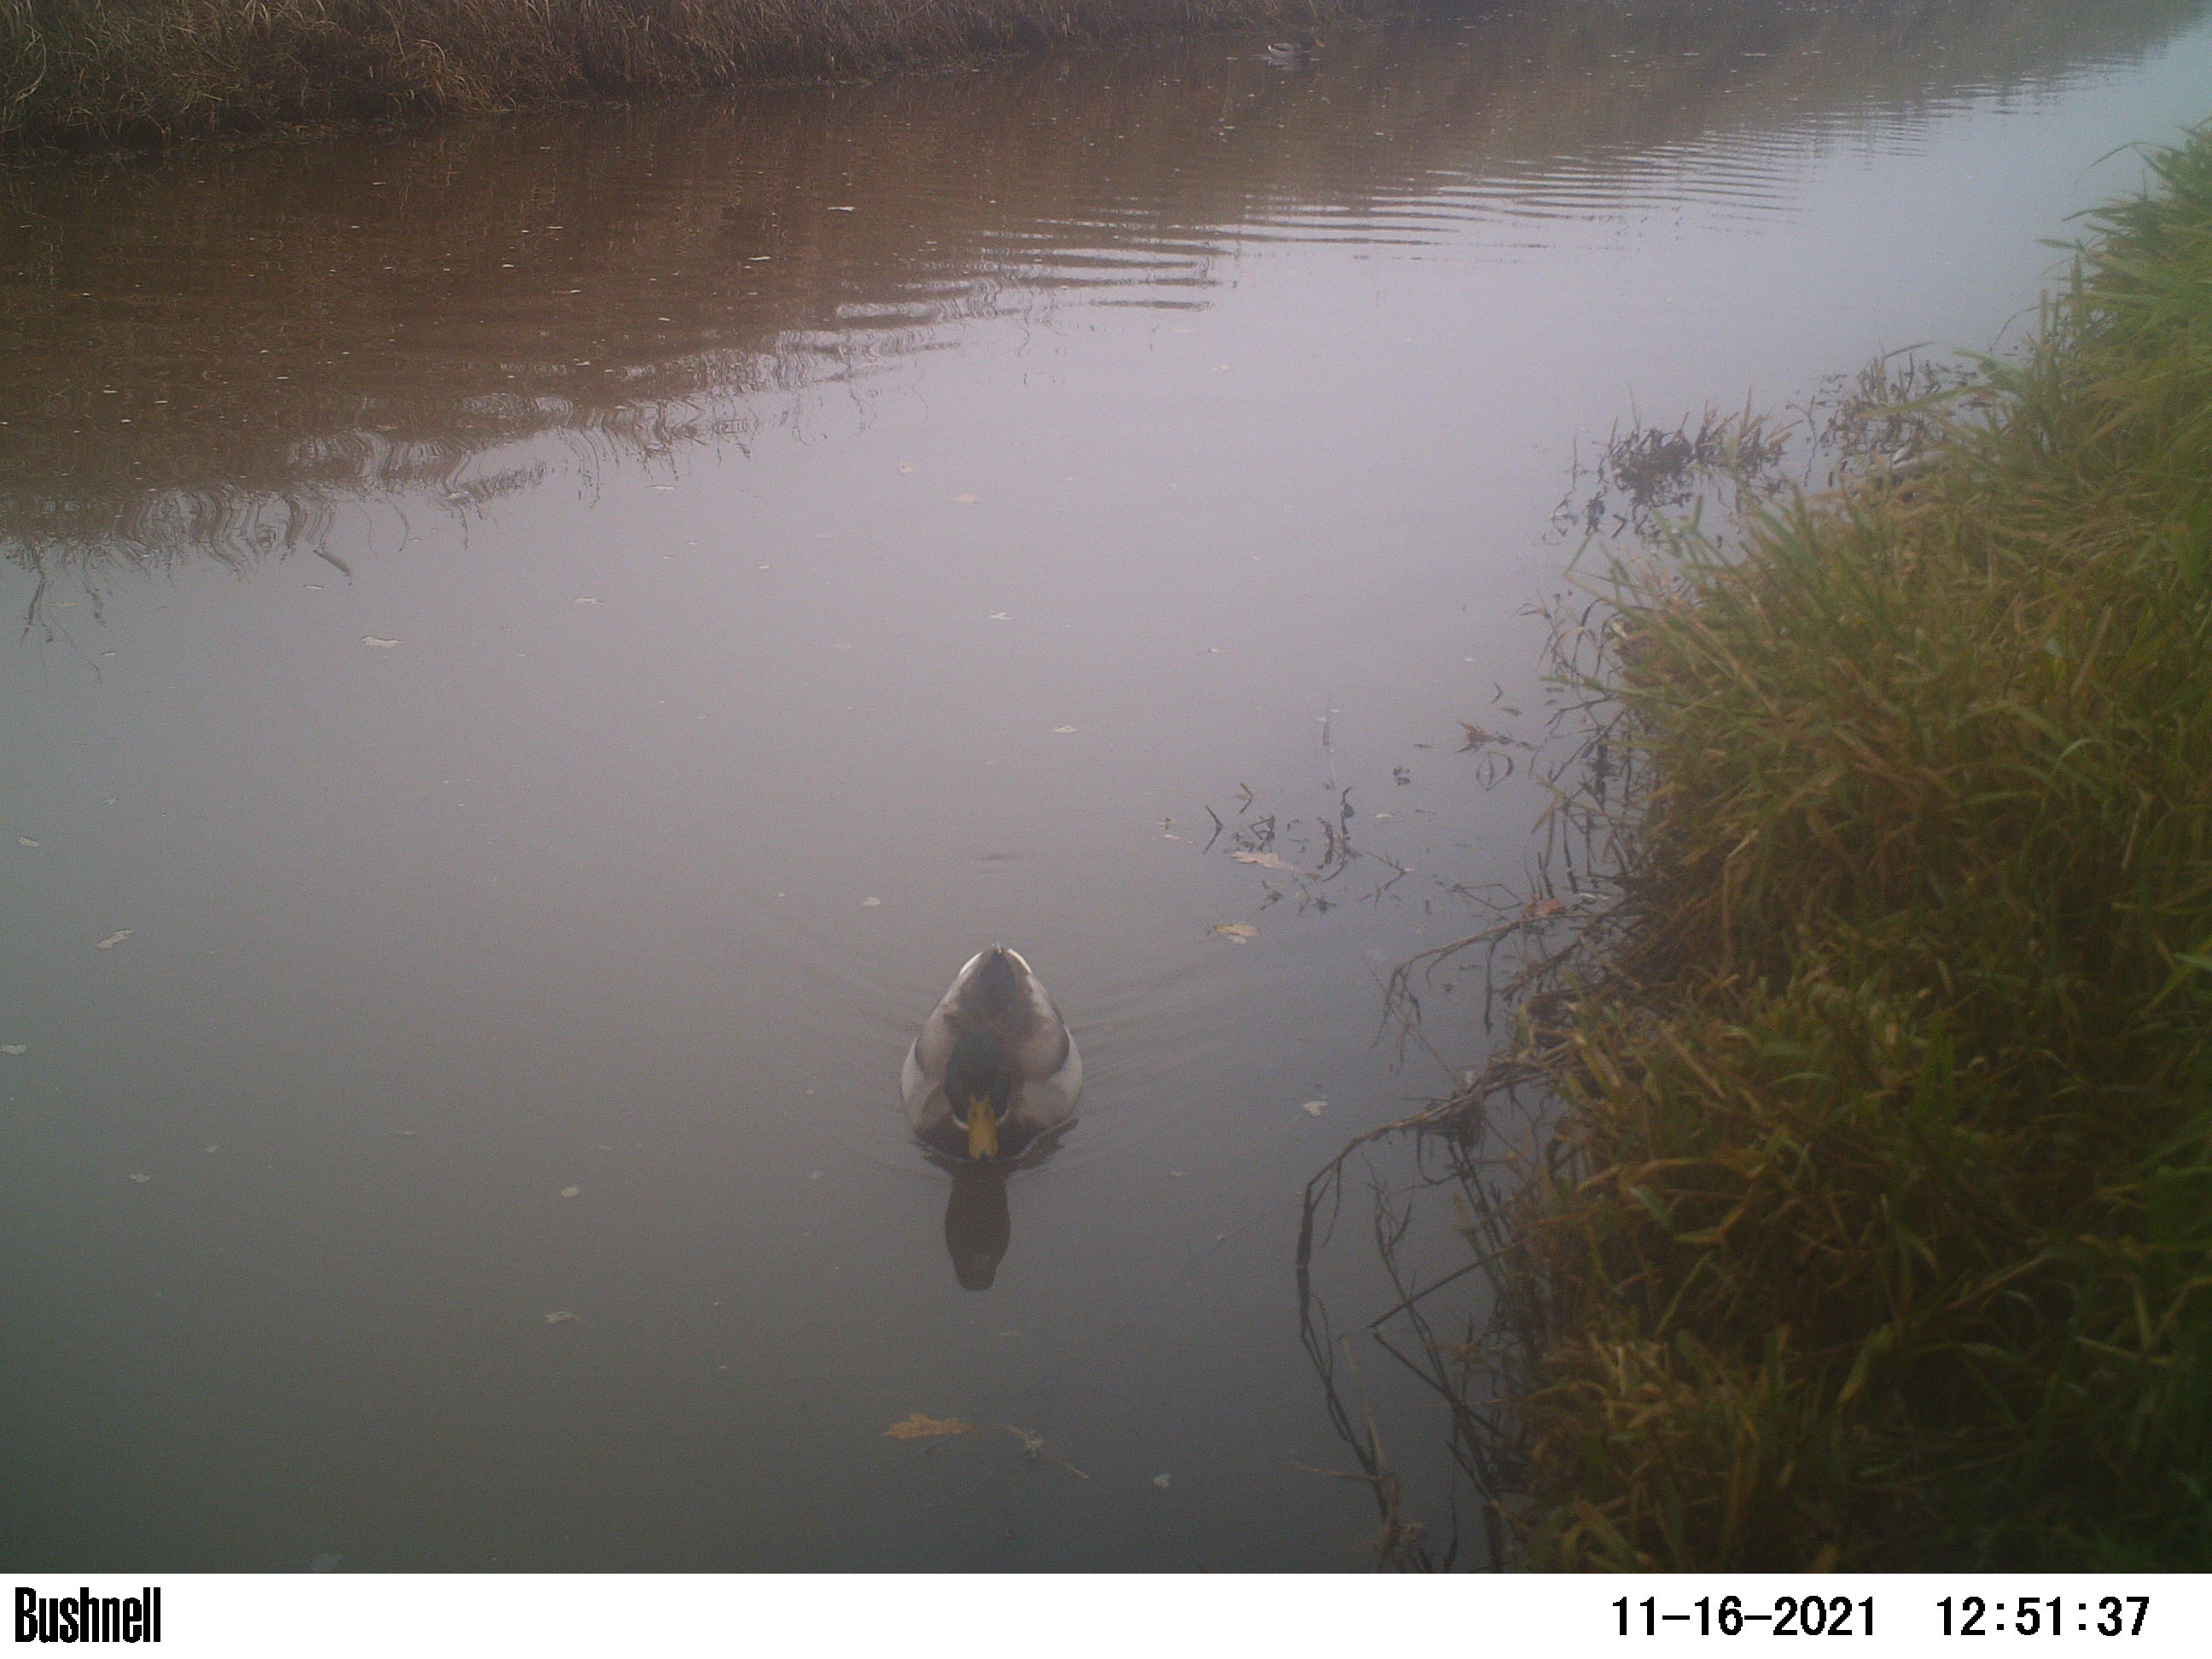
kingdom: Animalia
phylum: Chordata
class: Aves
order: Anseriformes
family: Anatidae
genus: Anas
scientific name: Anas
